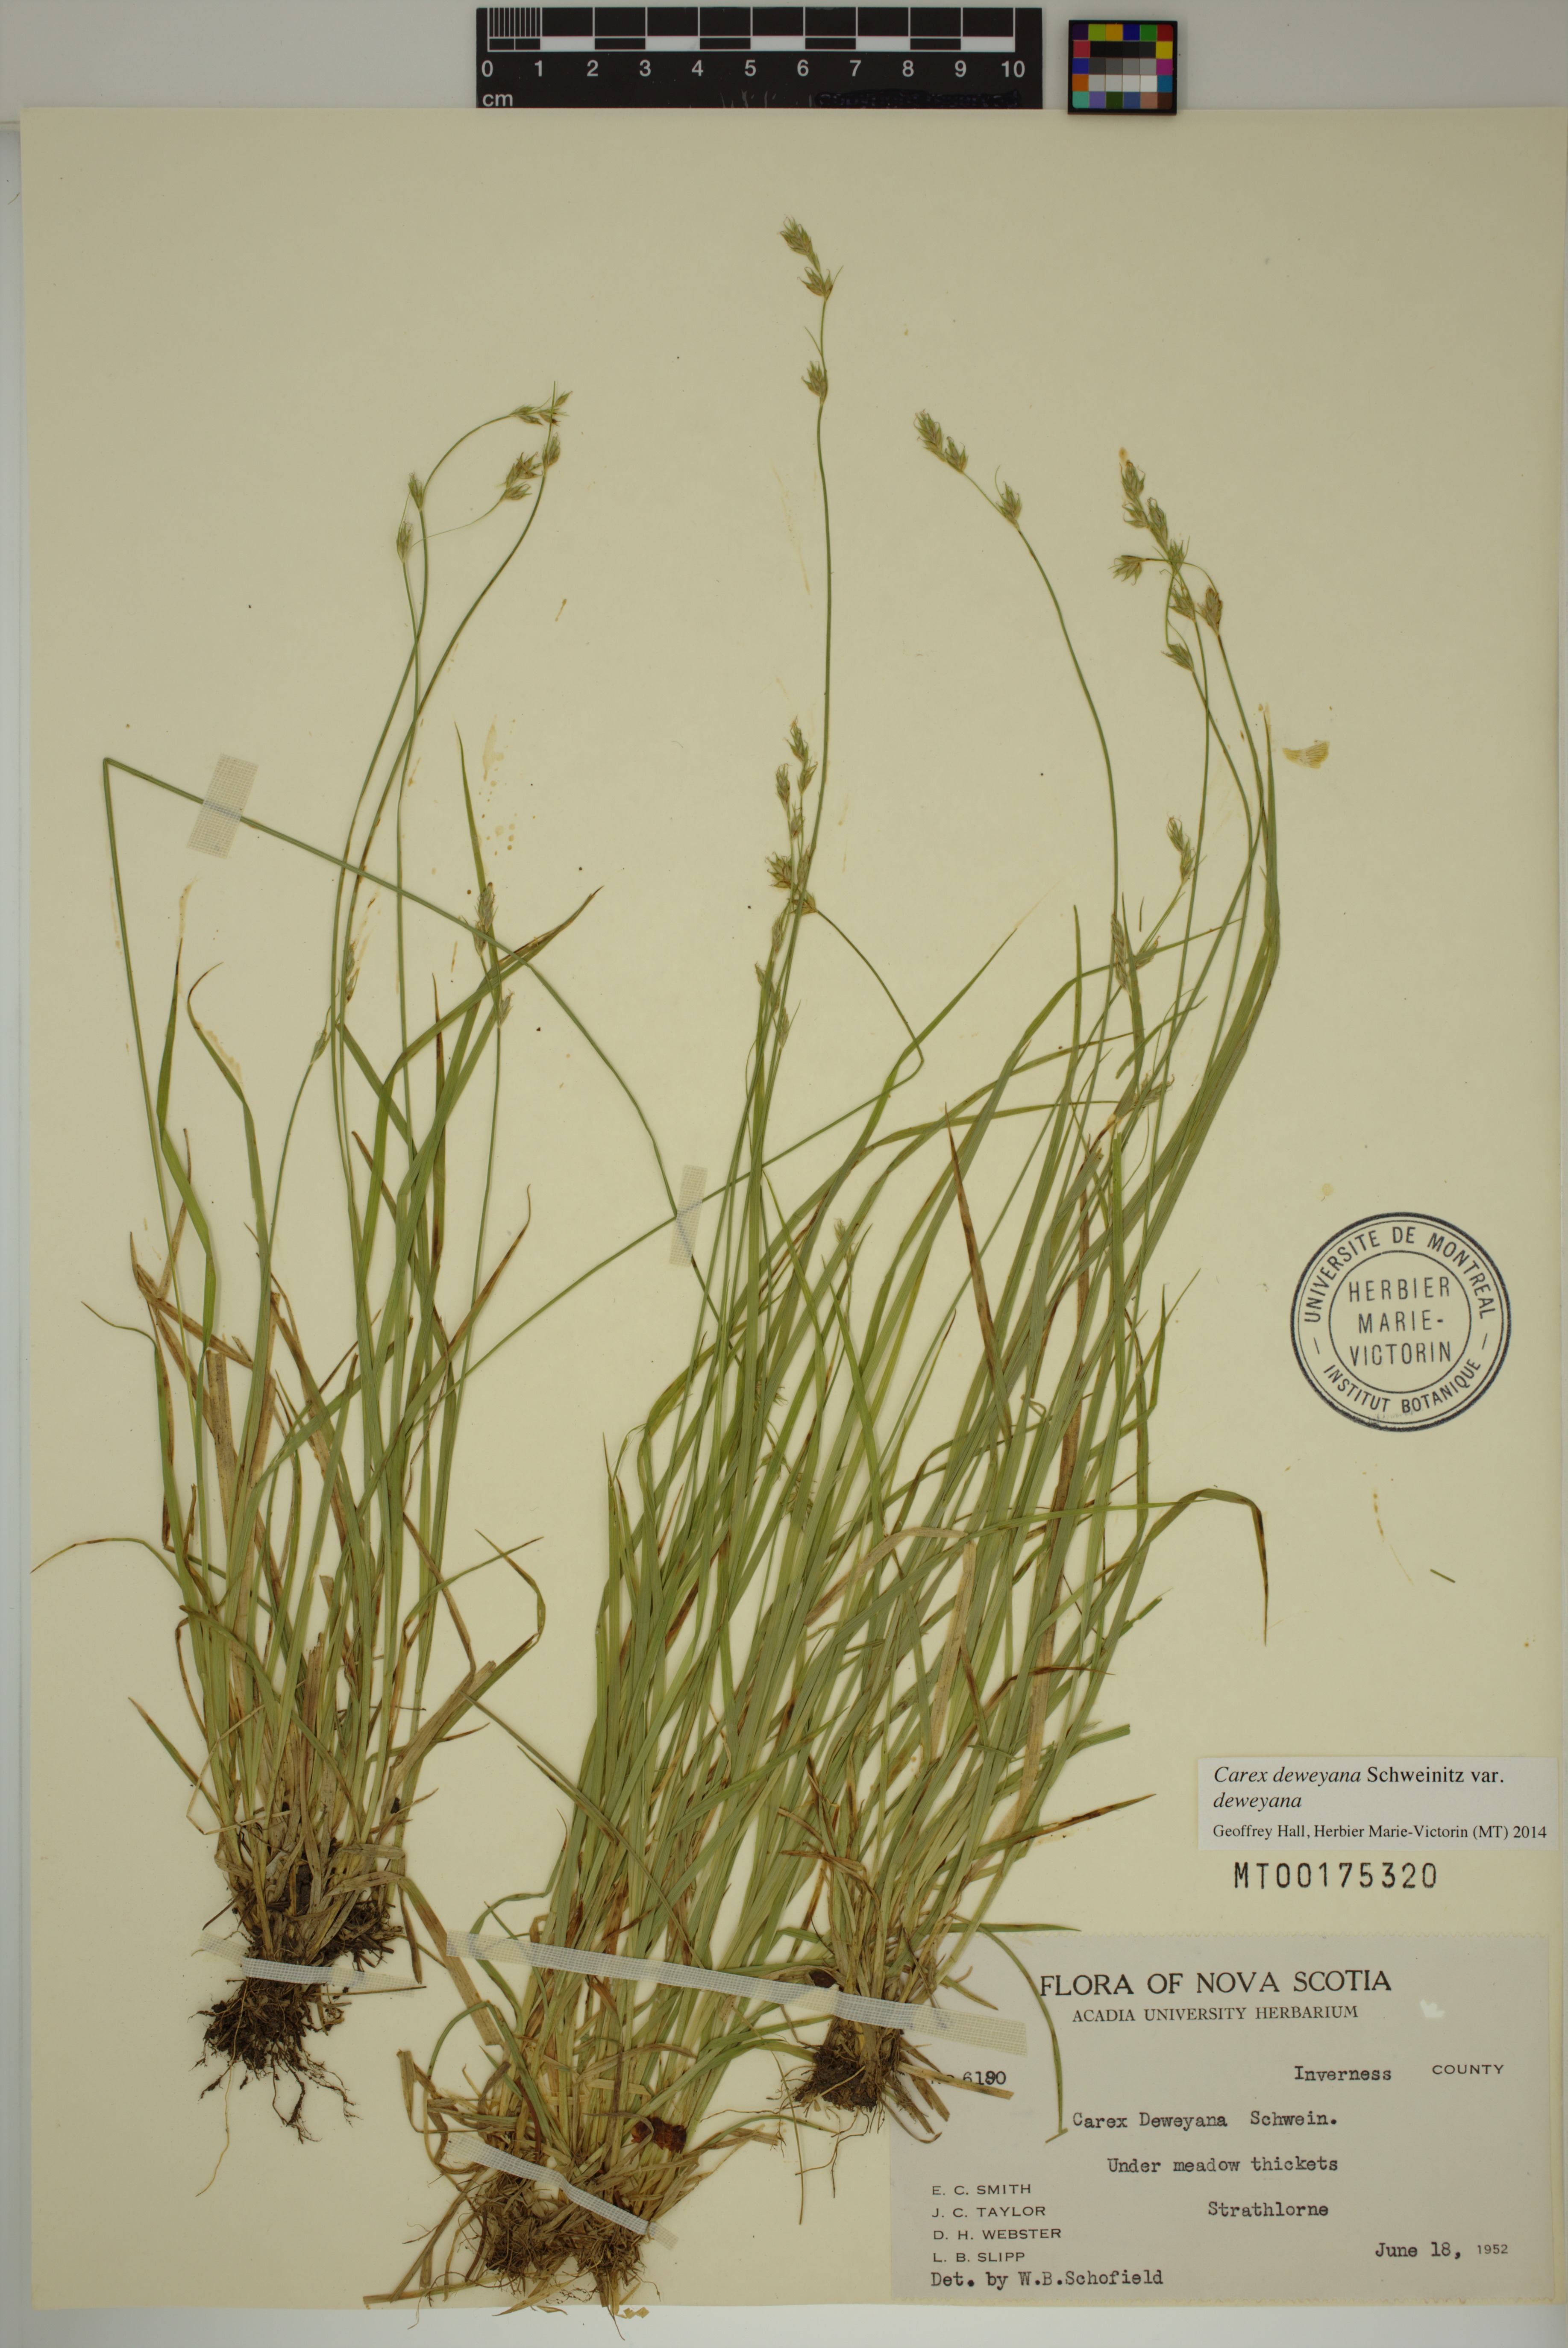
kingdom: Plantae
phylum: Tracheophyta
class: Liliopsida
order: Poales
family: Cyperaceae
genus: Carex
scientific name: Carex deweyana
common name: Dewey's sedge
